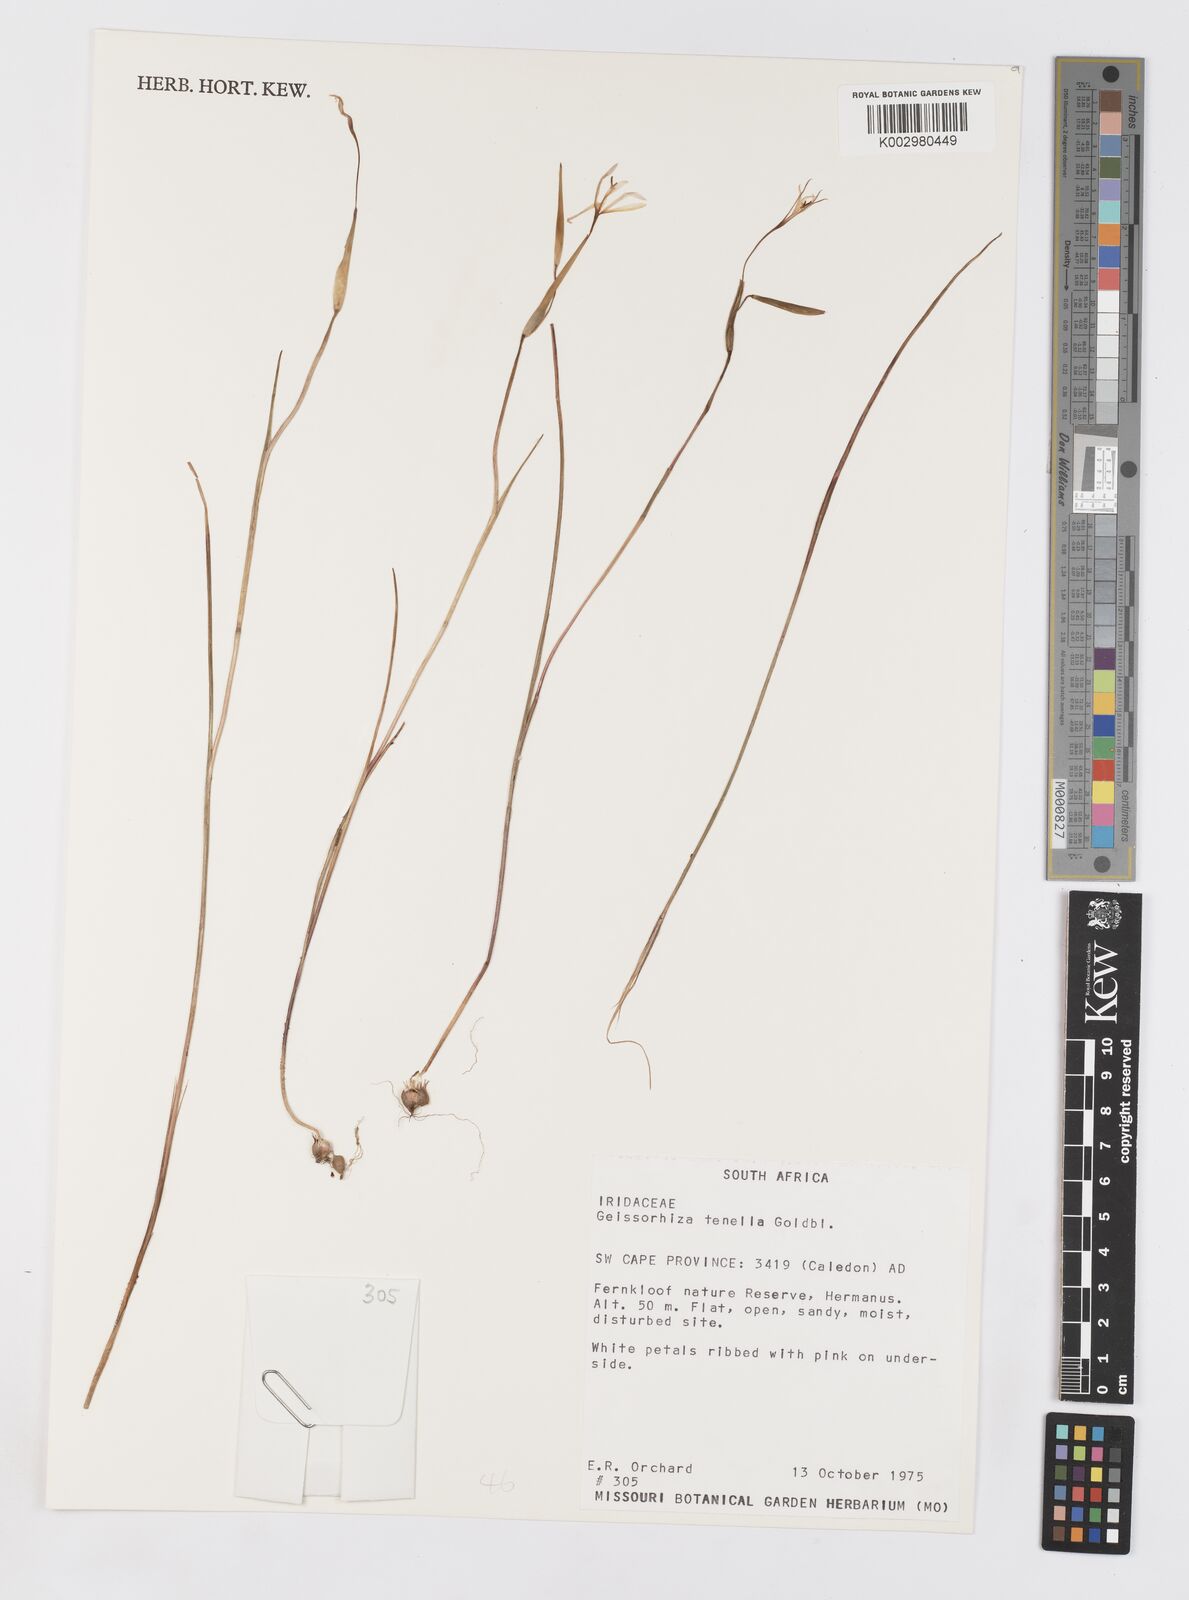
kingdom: Plantae
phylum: Tracheophyta
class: Liliopsida
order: Asparagales
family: Iridaceae
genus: Geissorhiza
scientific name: Geissorhiza tenella
